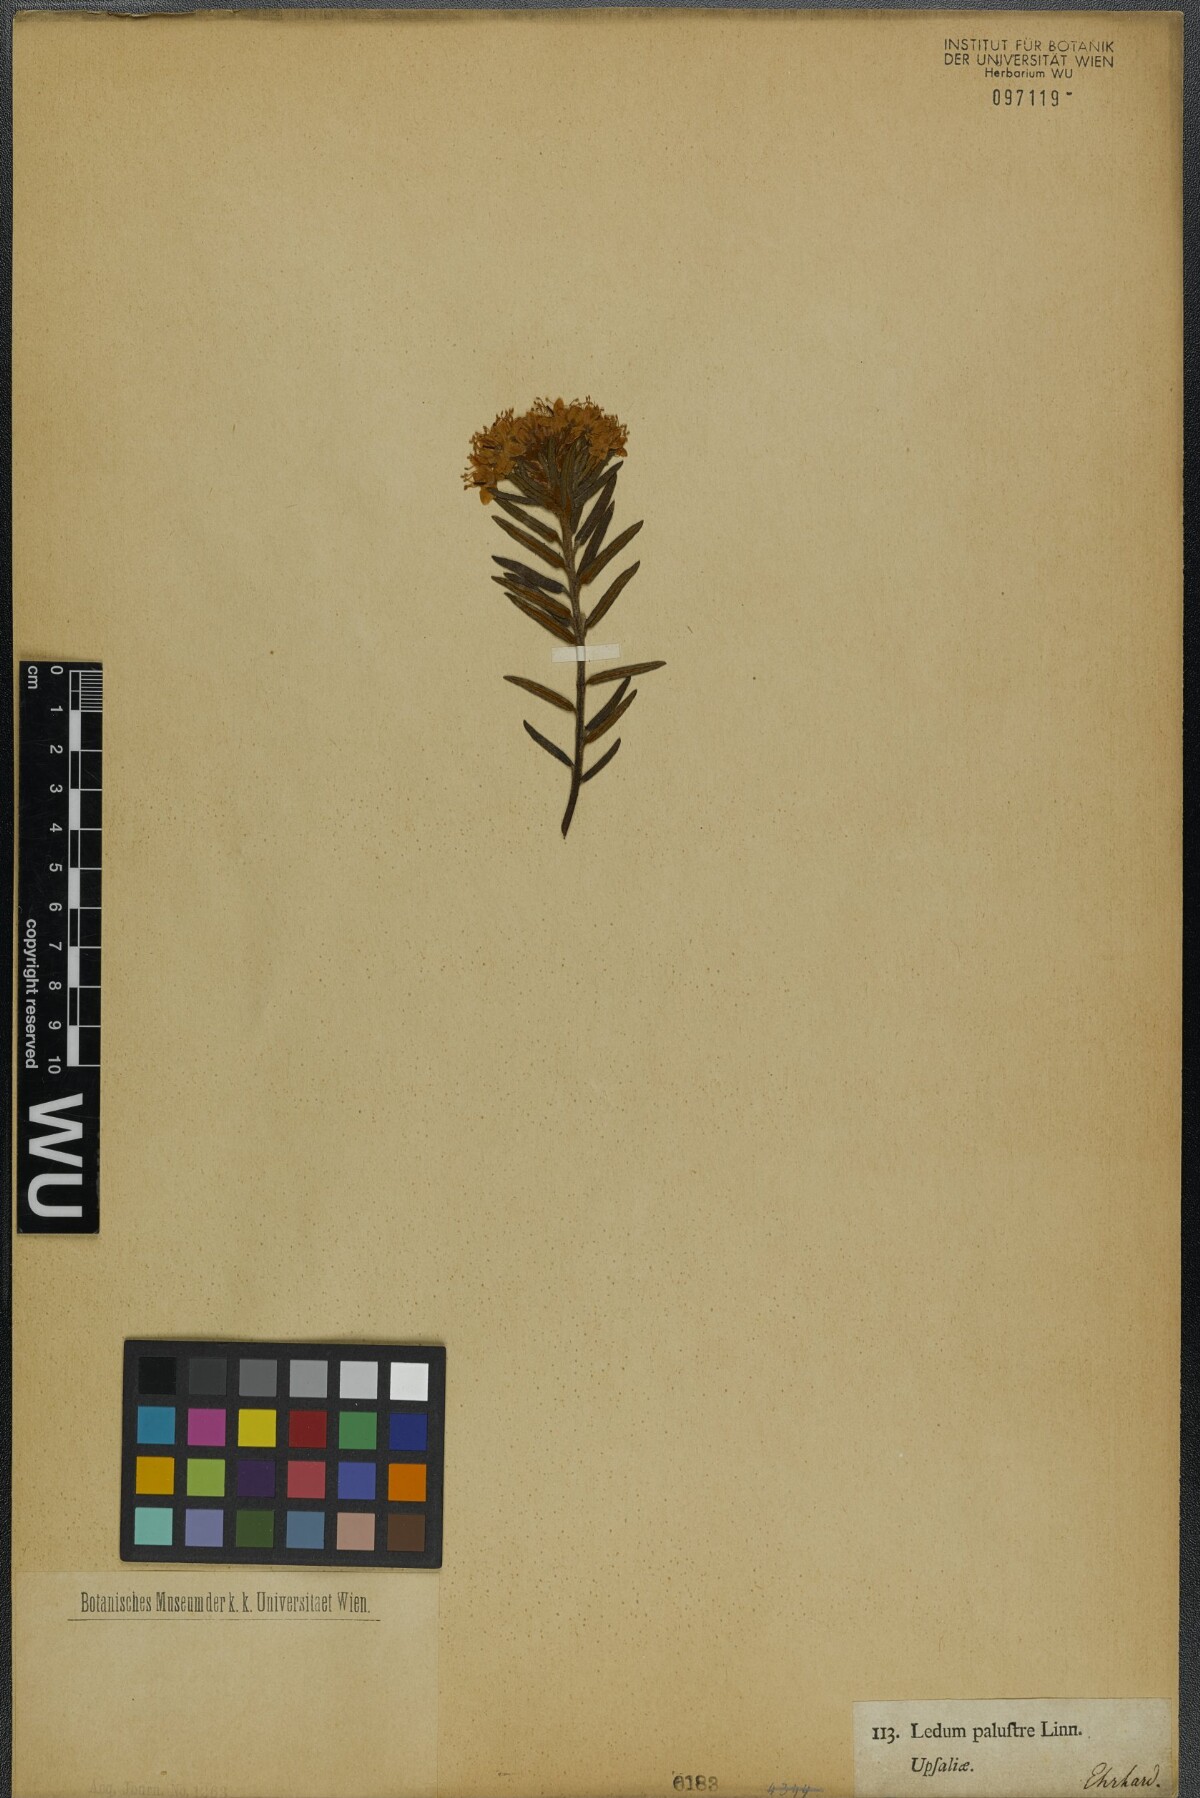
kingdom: Plantae
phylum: Tracheophyta
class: Magnoliopsida
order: Ericales
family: Ericaceae
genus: Rhododendron
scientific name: Rhododendron tomentosum
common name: Marsh labrador tea
